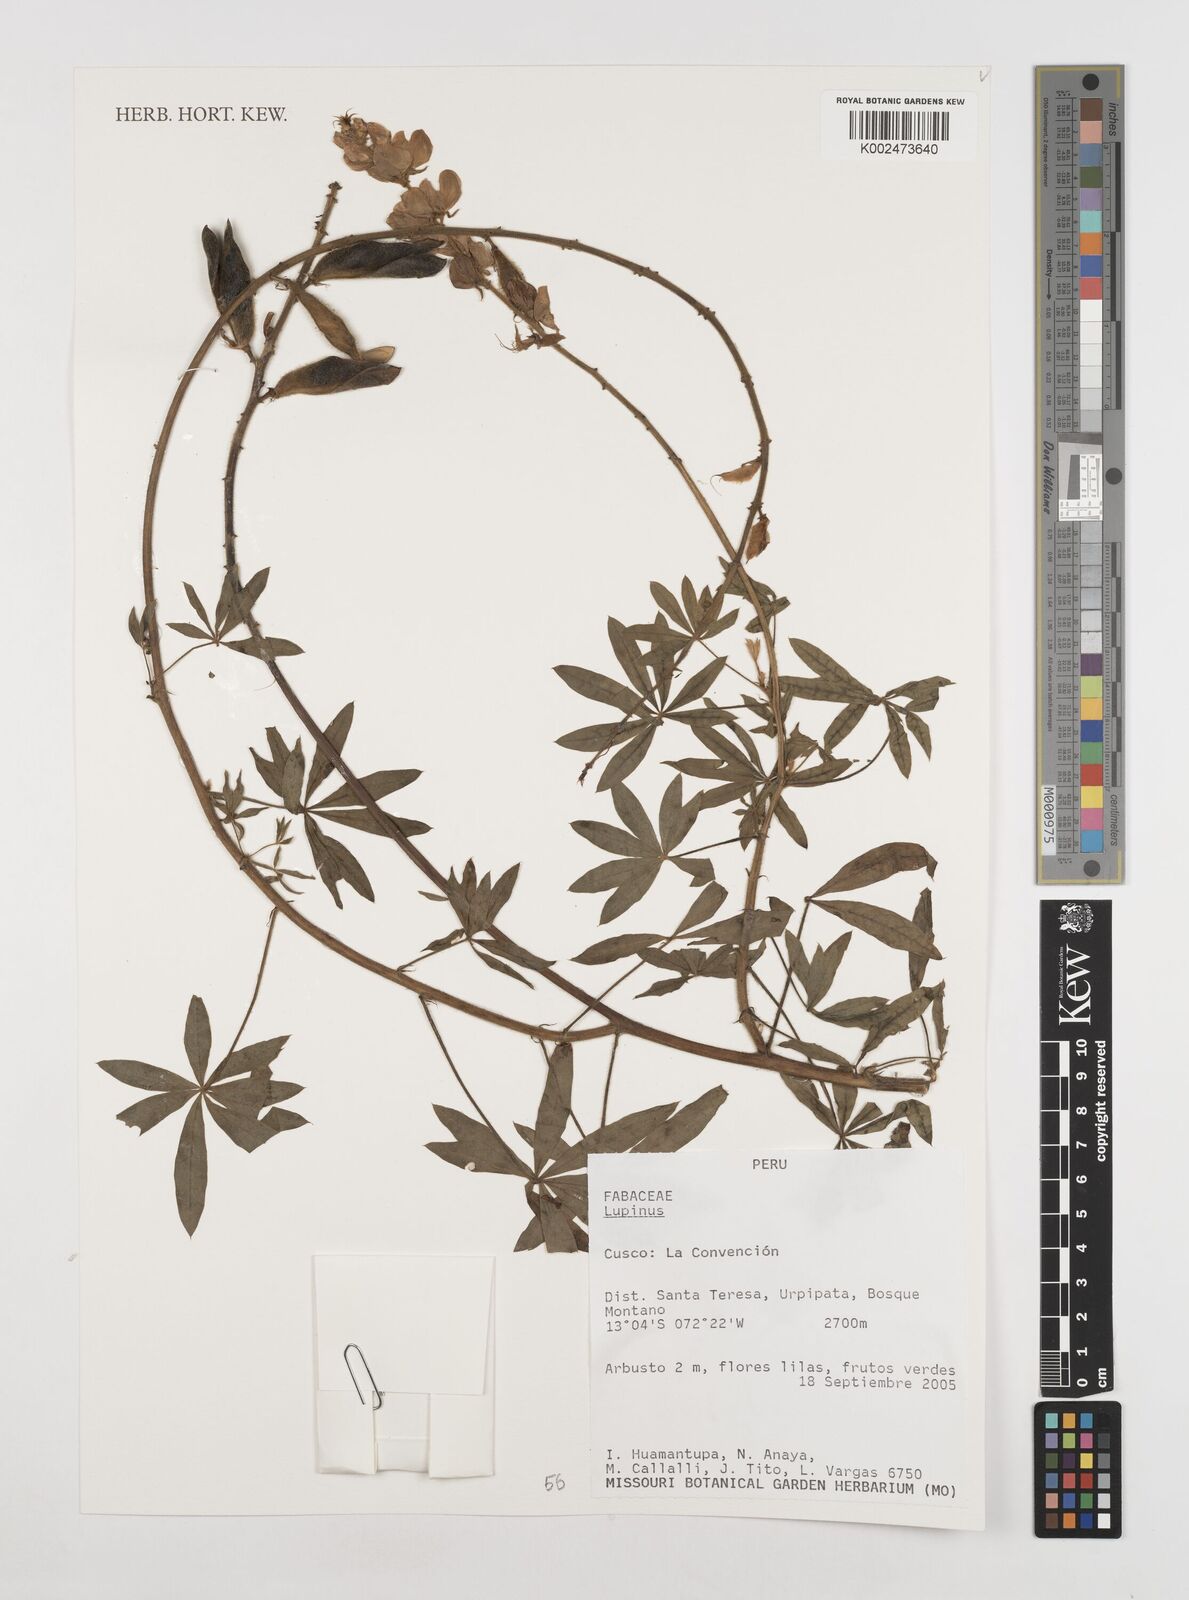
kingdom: Plantae
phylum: Tracheophyta
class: Magnoliopsida
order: Fabales
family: Fabaceae
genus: Lupinus
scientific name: Lupinus
